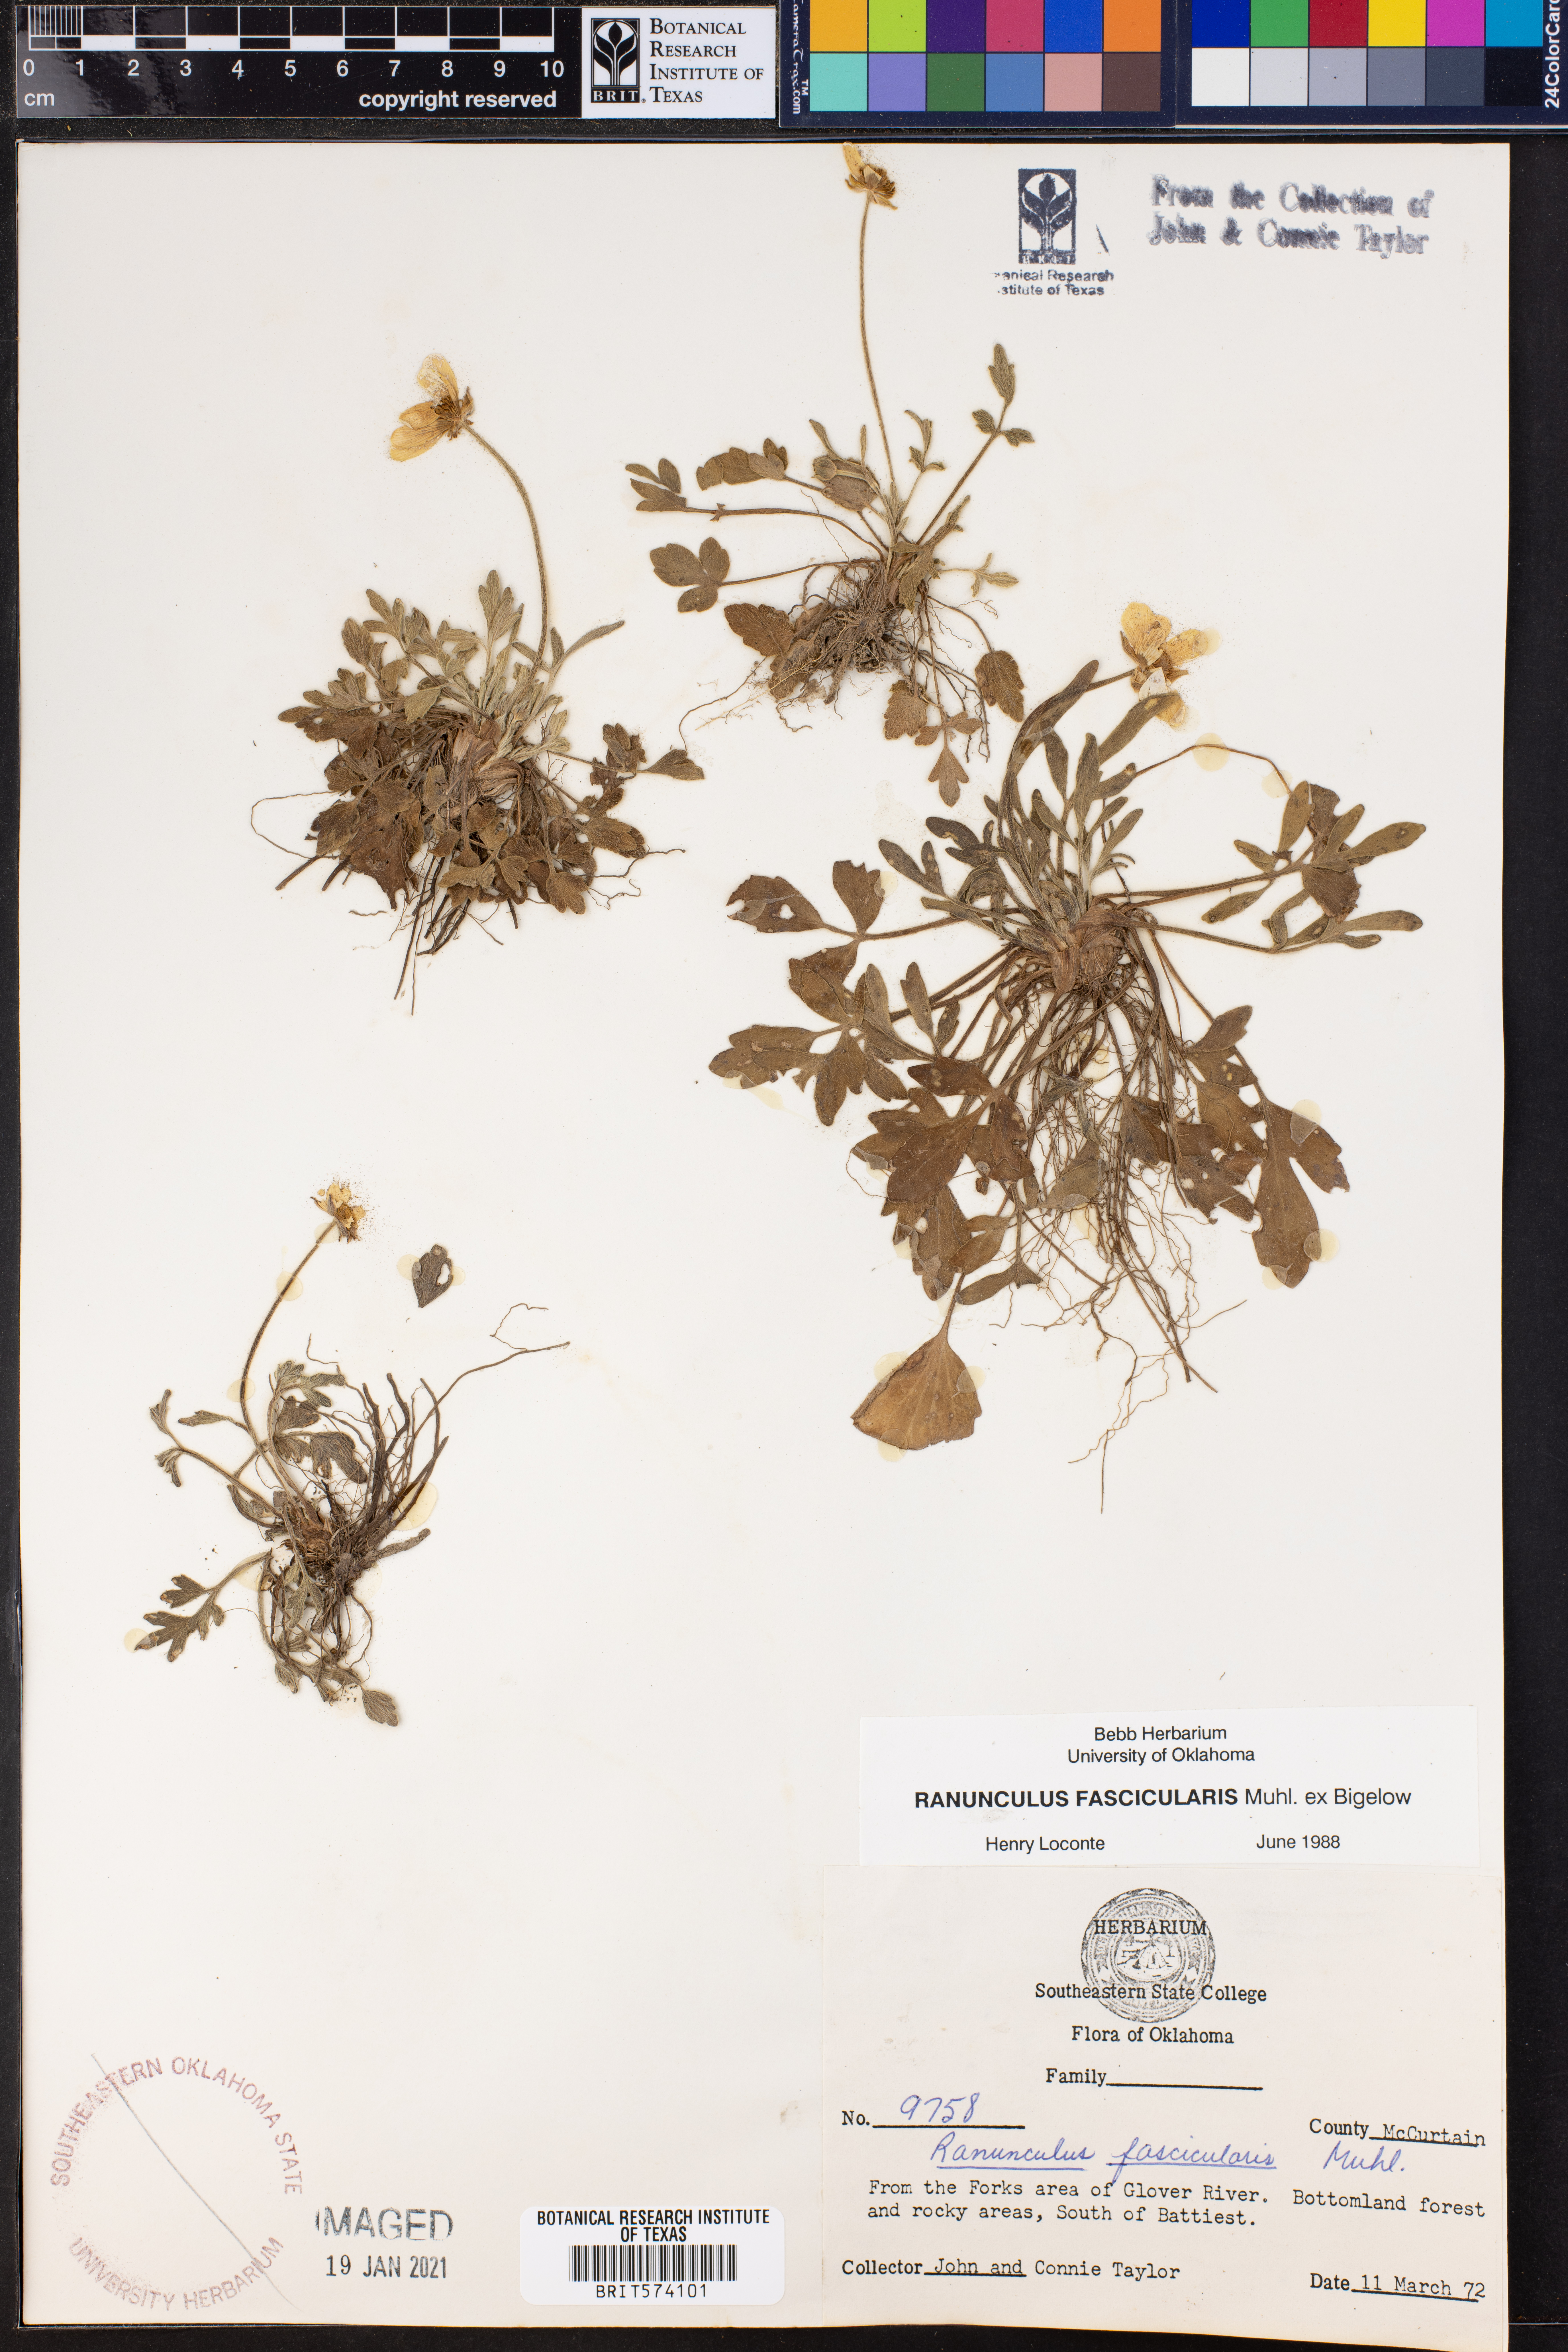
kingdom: Plantae
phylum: Tracheophyta
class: Magnoliopsida
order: Ranunculales
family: Ranunculaceae
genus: Ranunculus
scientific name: Ranunculus fascicularis
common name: Early buttercup
